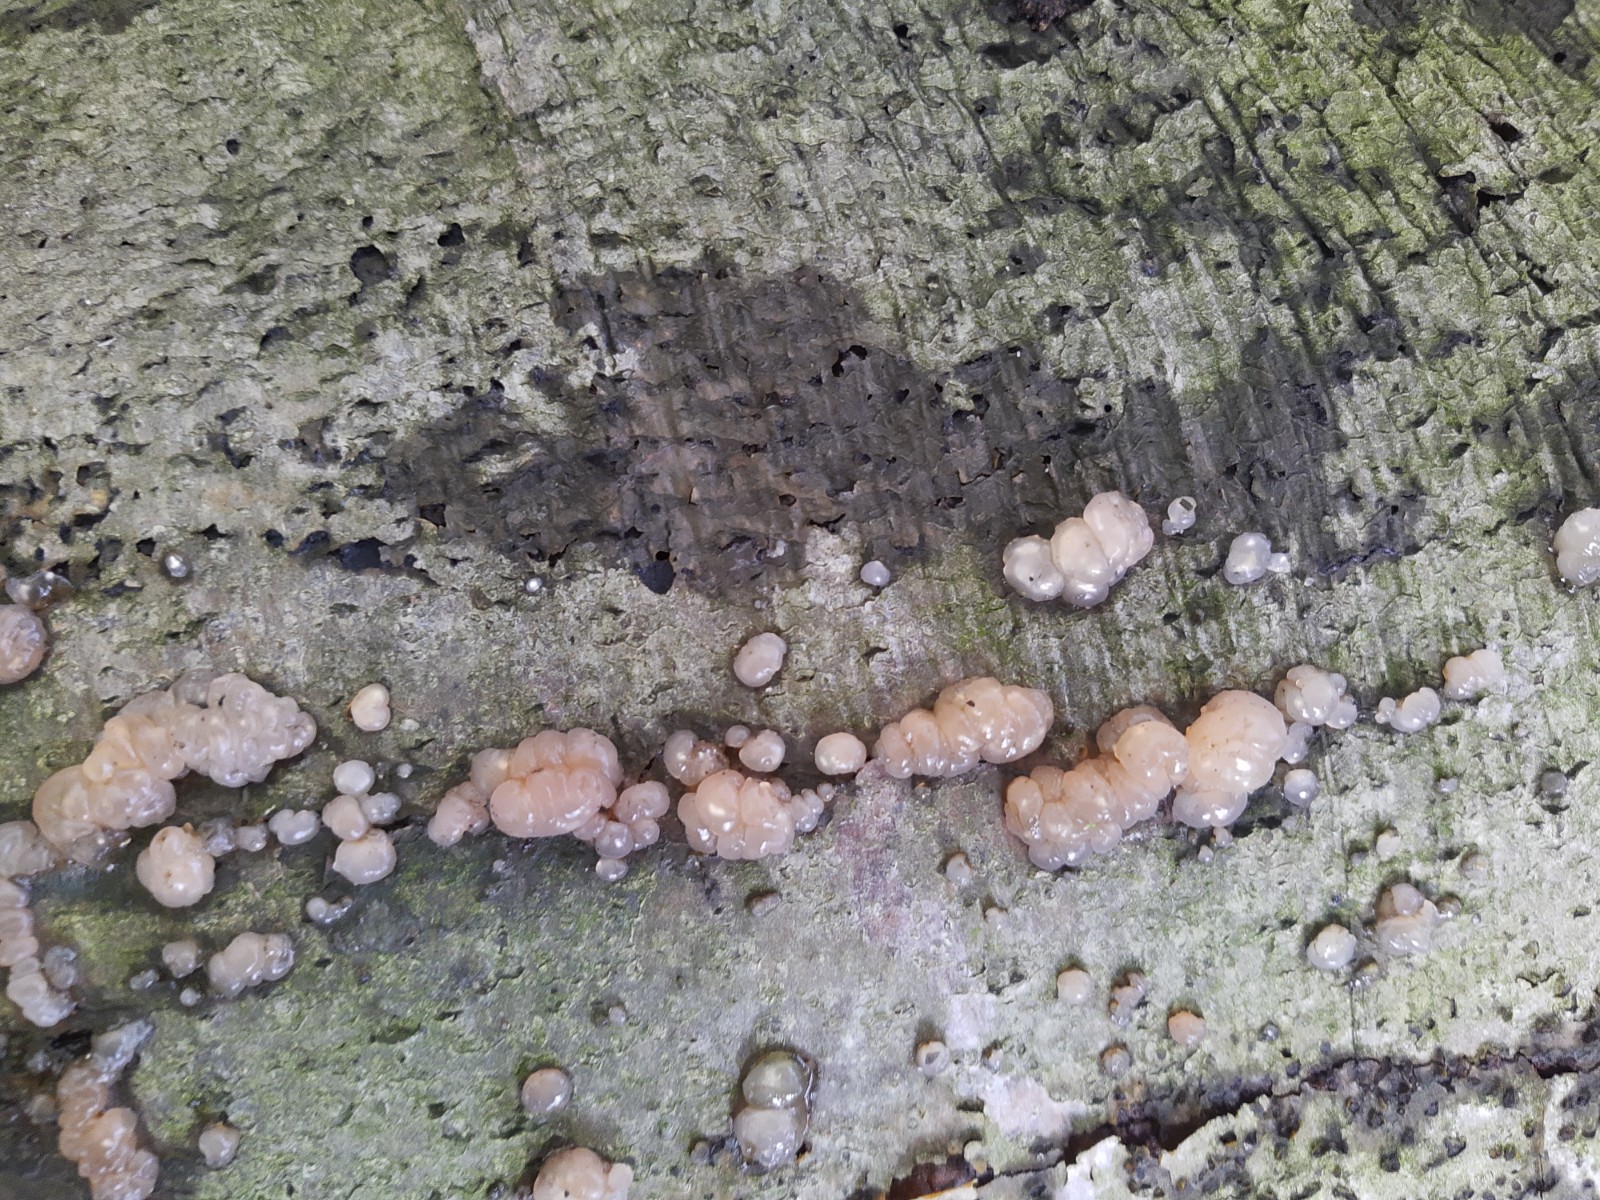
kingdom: Fungi
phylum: Basidiomycota
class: Agaricomycetes
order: Auriculariales
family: Hyaloriaceae
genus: Myxarium
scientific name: Myxarium hyalinum
